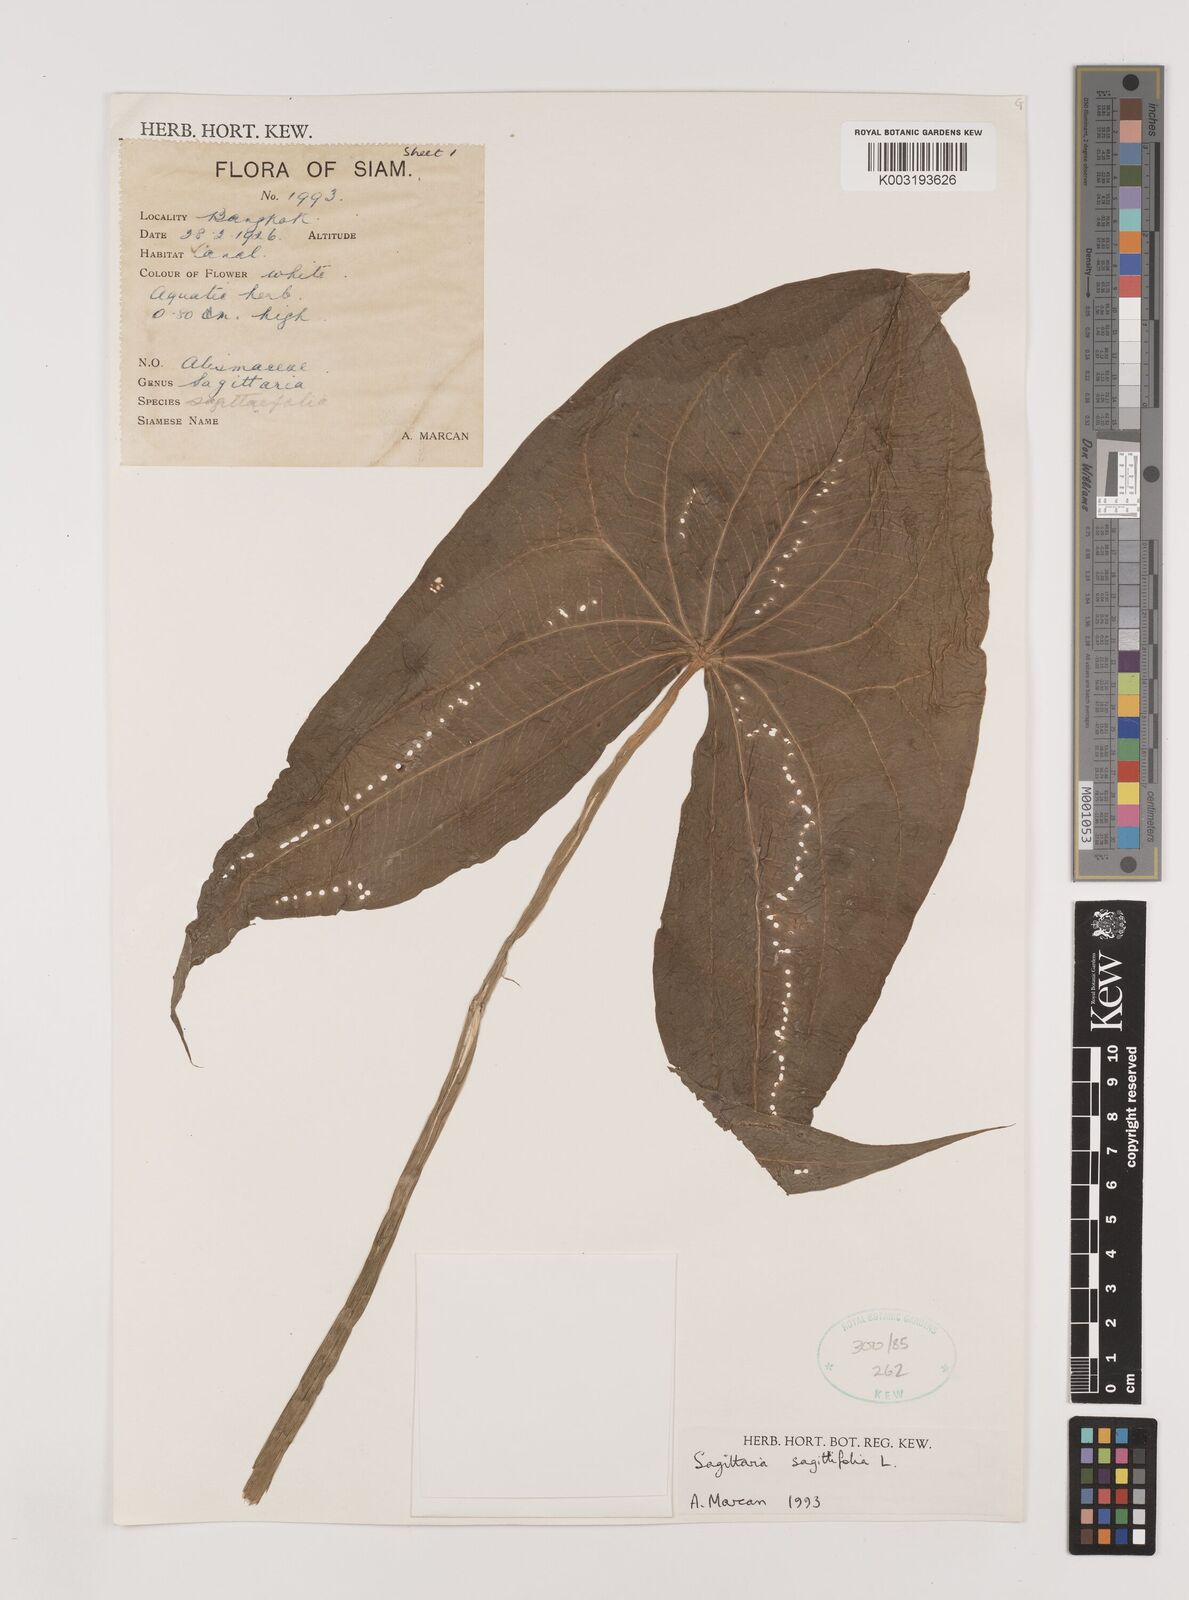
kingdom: Plantae
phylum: Tracheophyta
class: Liliopsida
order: Alismatales
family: Alismataceae
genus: Sagittaria
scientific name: Sagittaria sagittifolia
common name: Arrowhead
